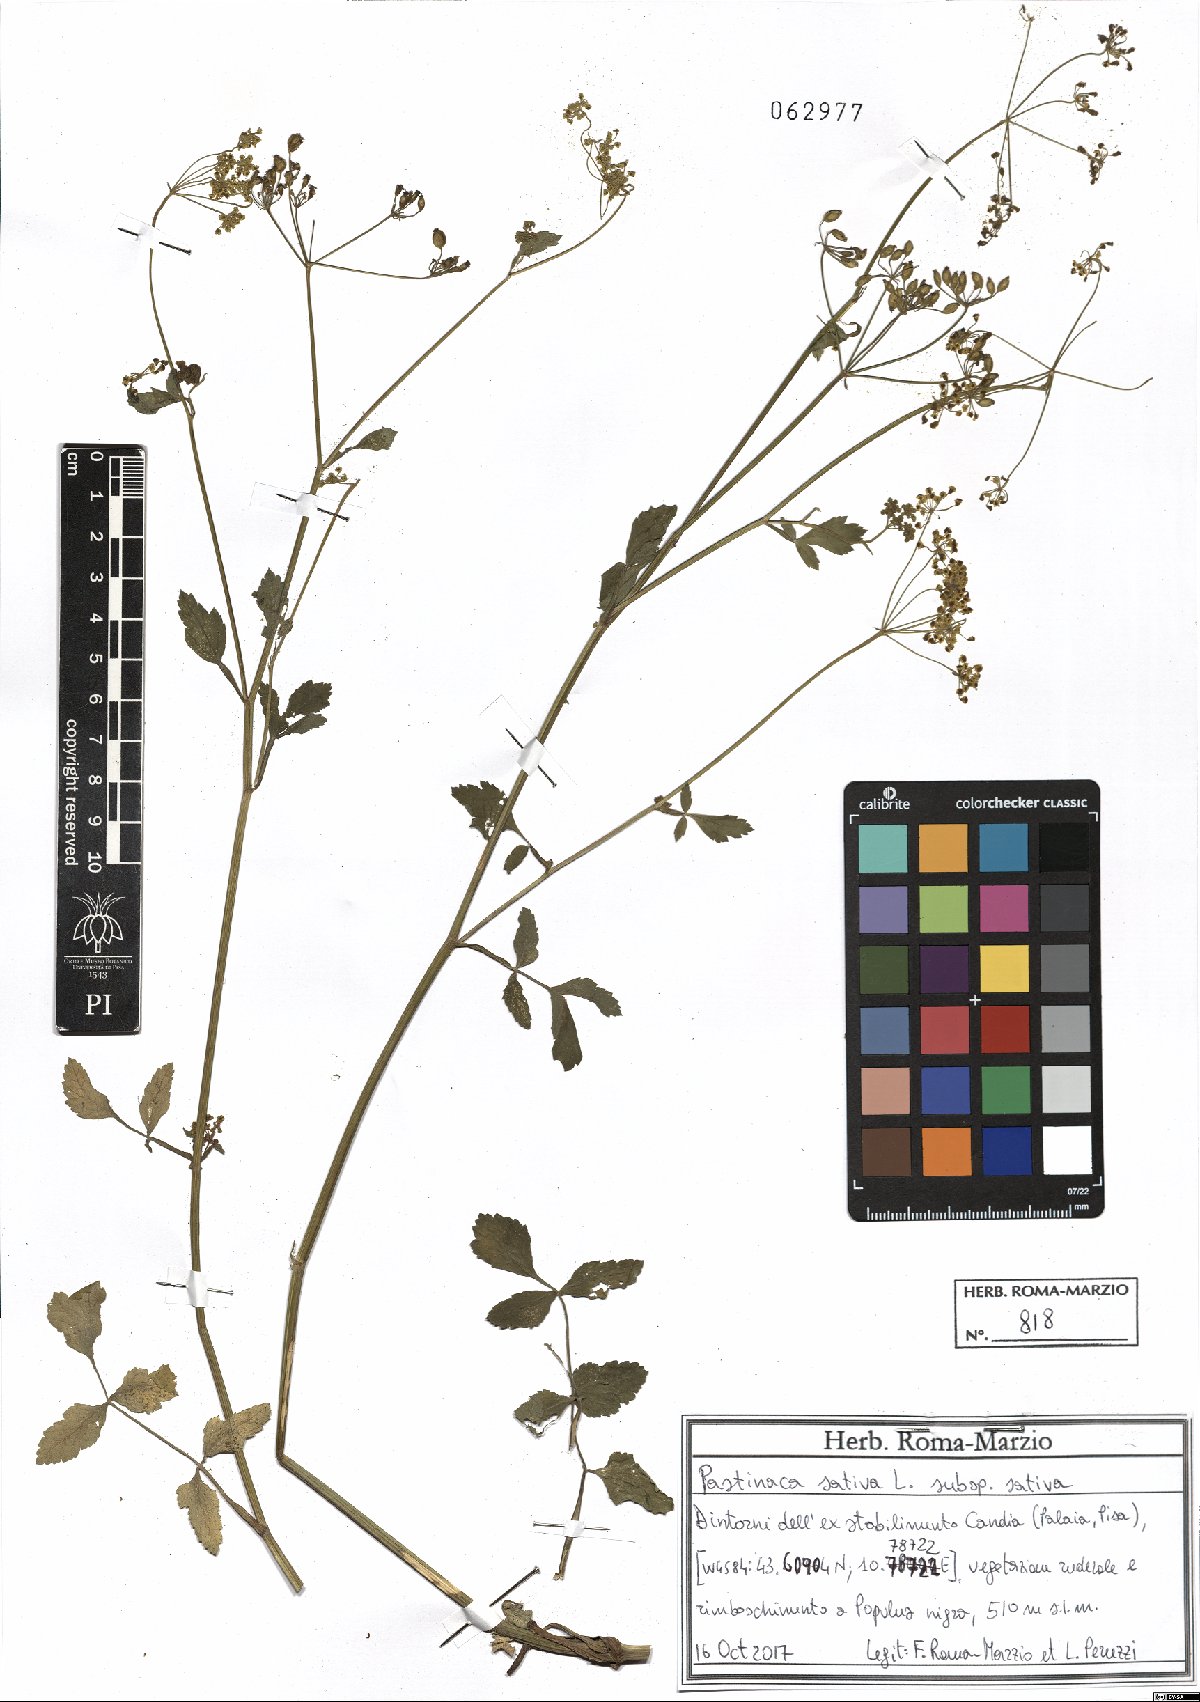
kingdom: Plantae
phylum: Tracheophyta
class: Magnoliopsida
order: Apiales
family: Apiaceae
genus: Pastinaca
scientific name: Pastinaca sativa
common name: Wild parsnip
